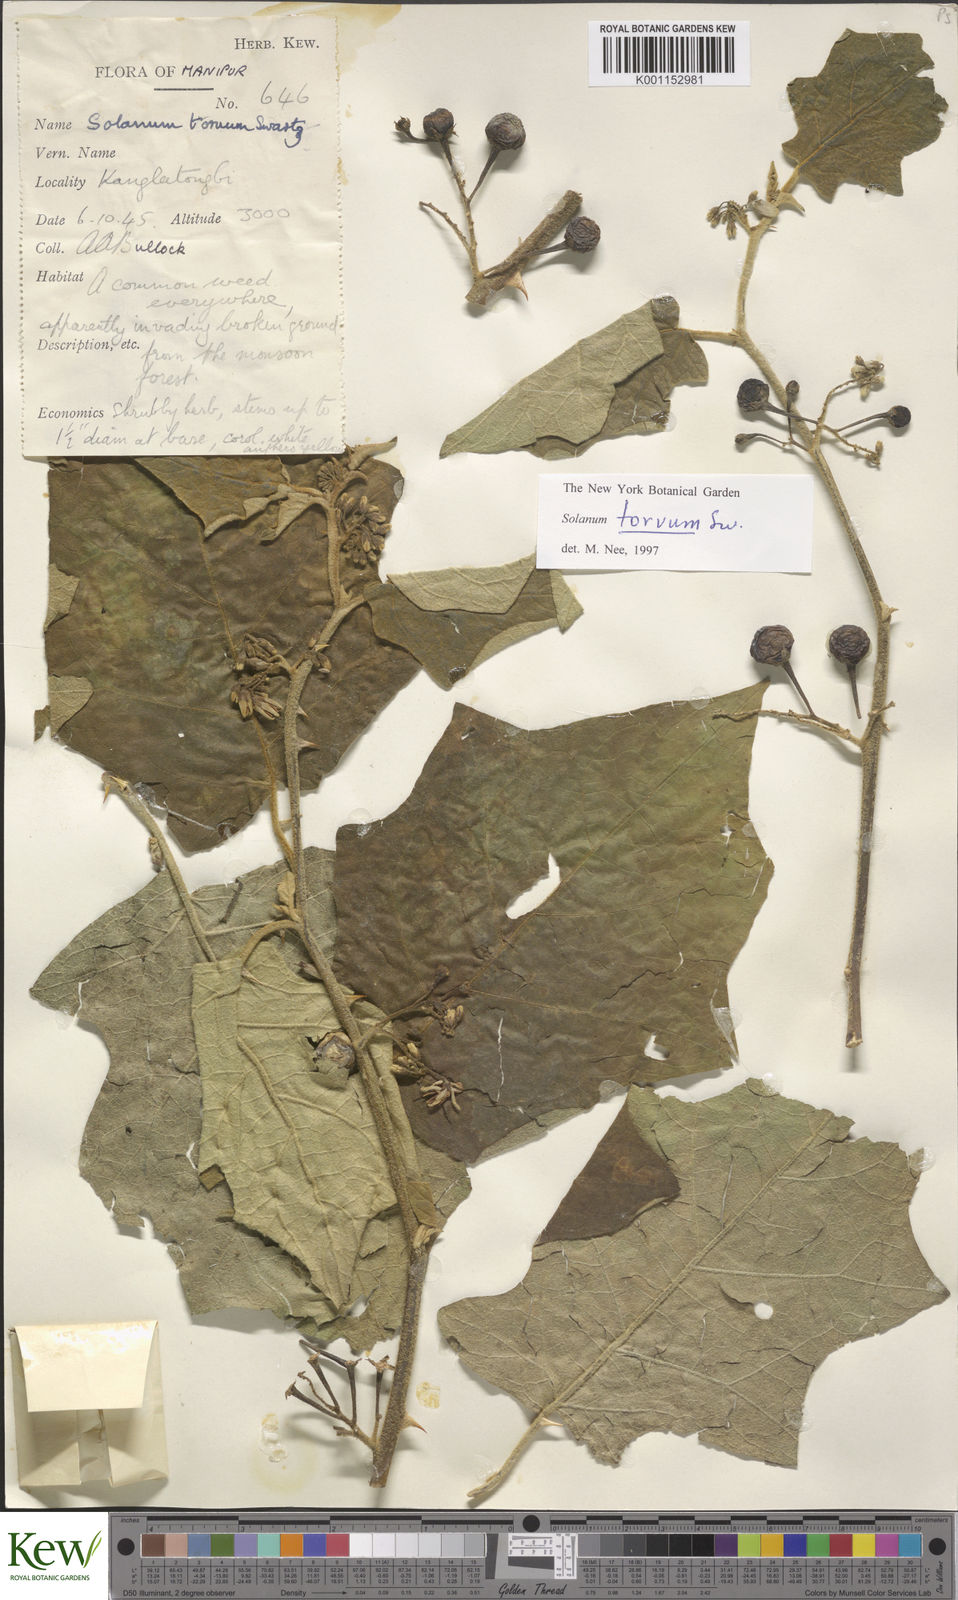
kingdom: Plantae
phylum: Tracheophyta
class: Magnoliopsida
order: Solanales
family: Solanaceae
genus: Solanum
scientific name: Solanum torvum
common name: Turkey berry
